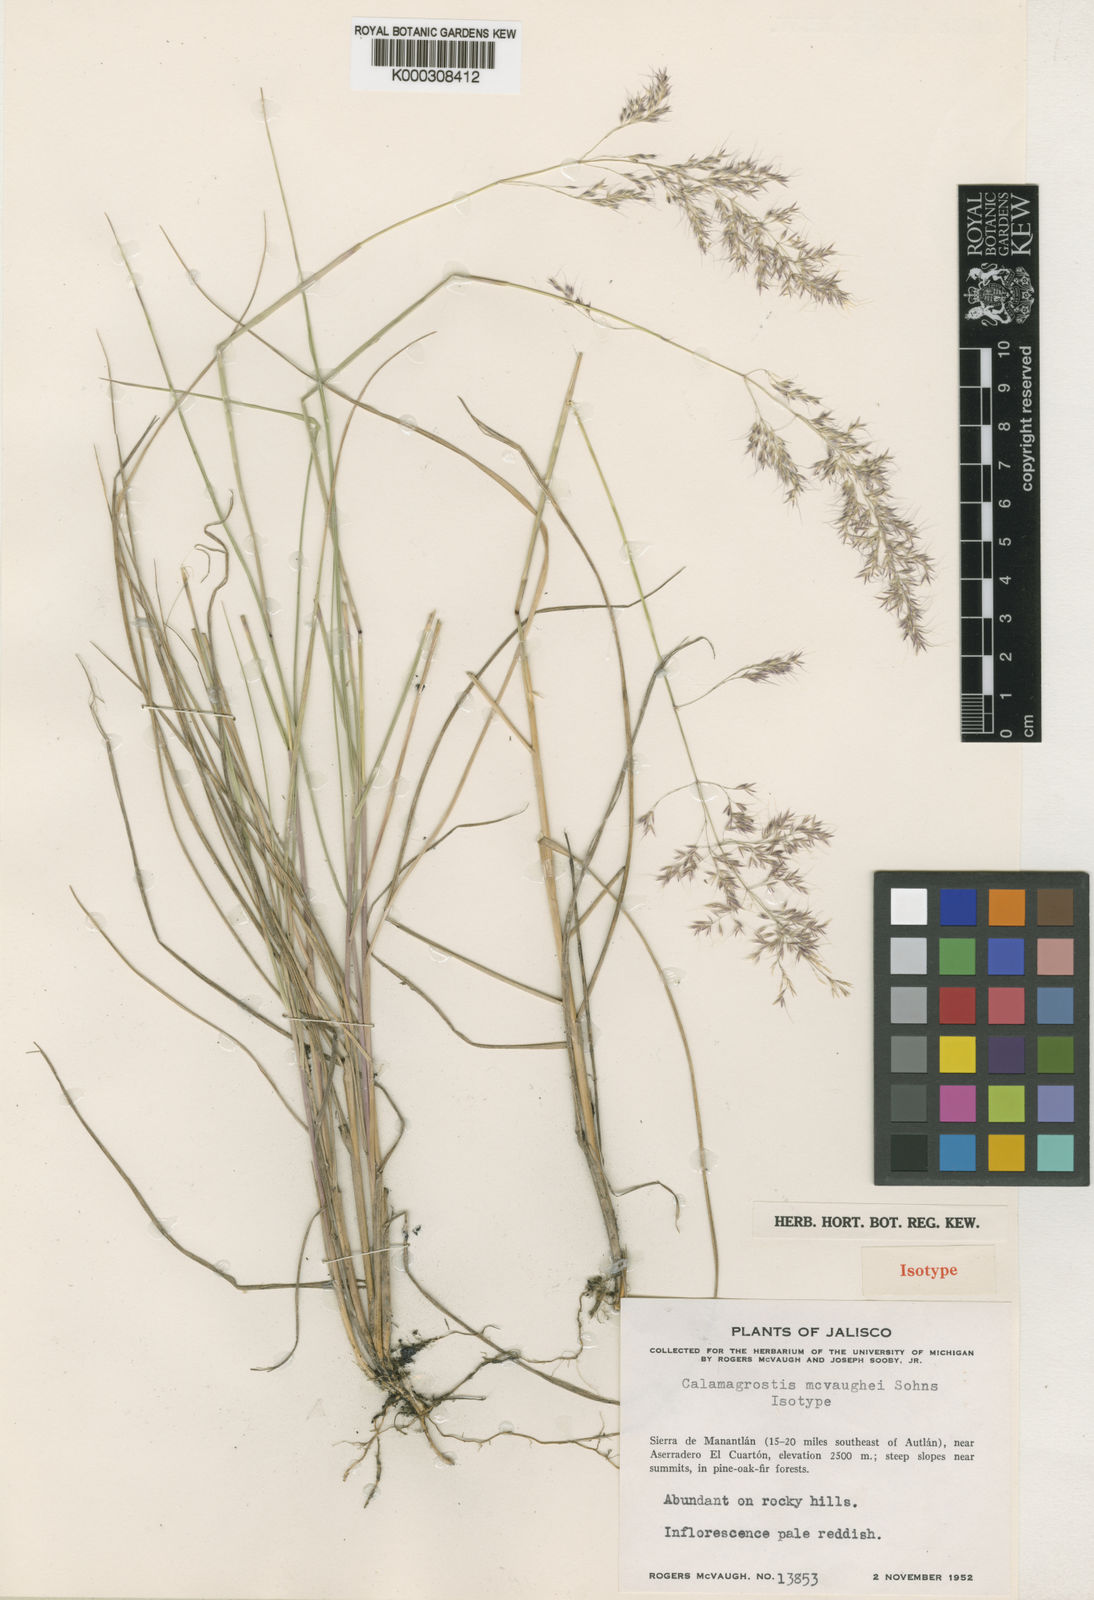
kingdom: Plantae
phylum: Tracheophyta
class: Liliopsida
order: Poales
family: Poaceae
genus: Peyritschia
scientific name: Peyritschia valida
